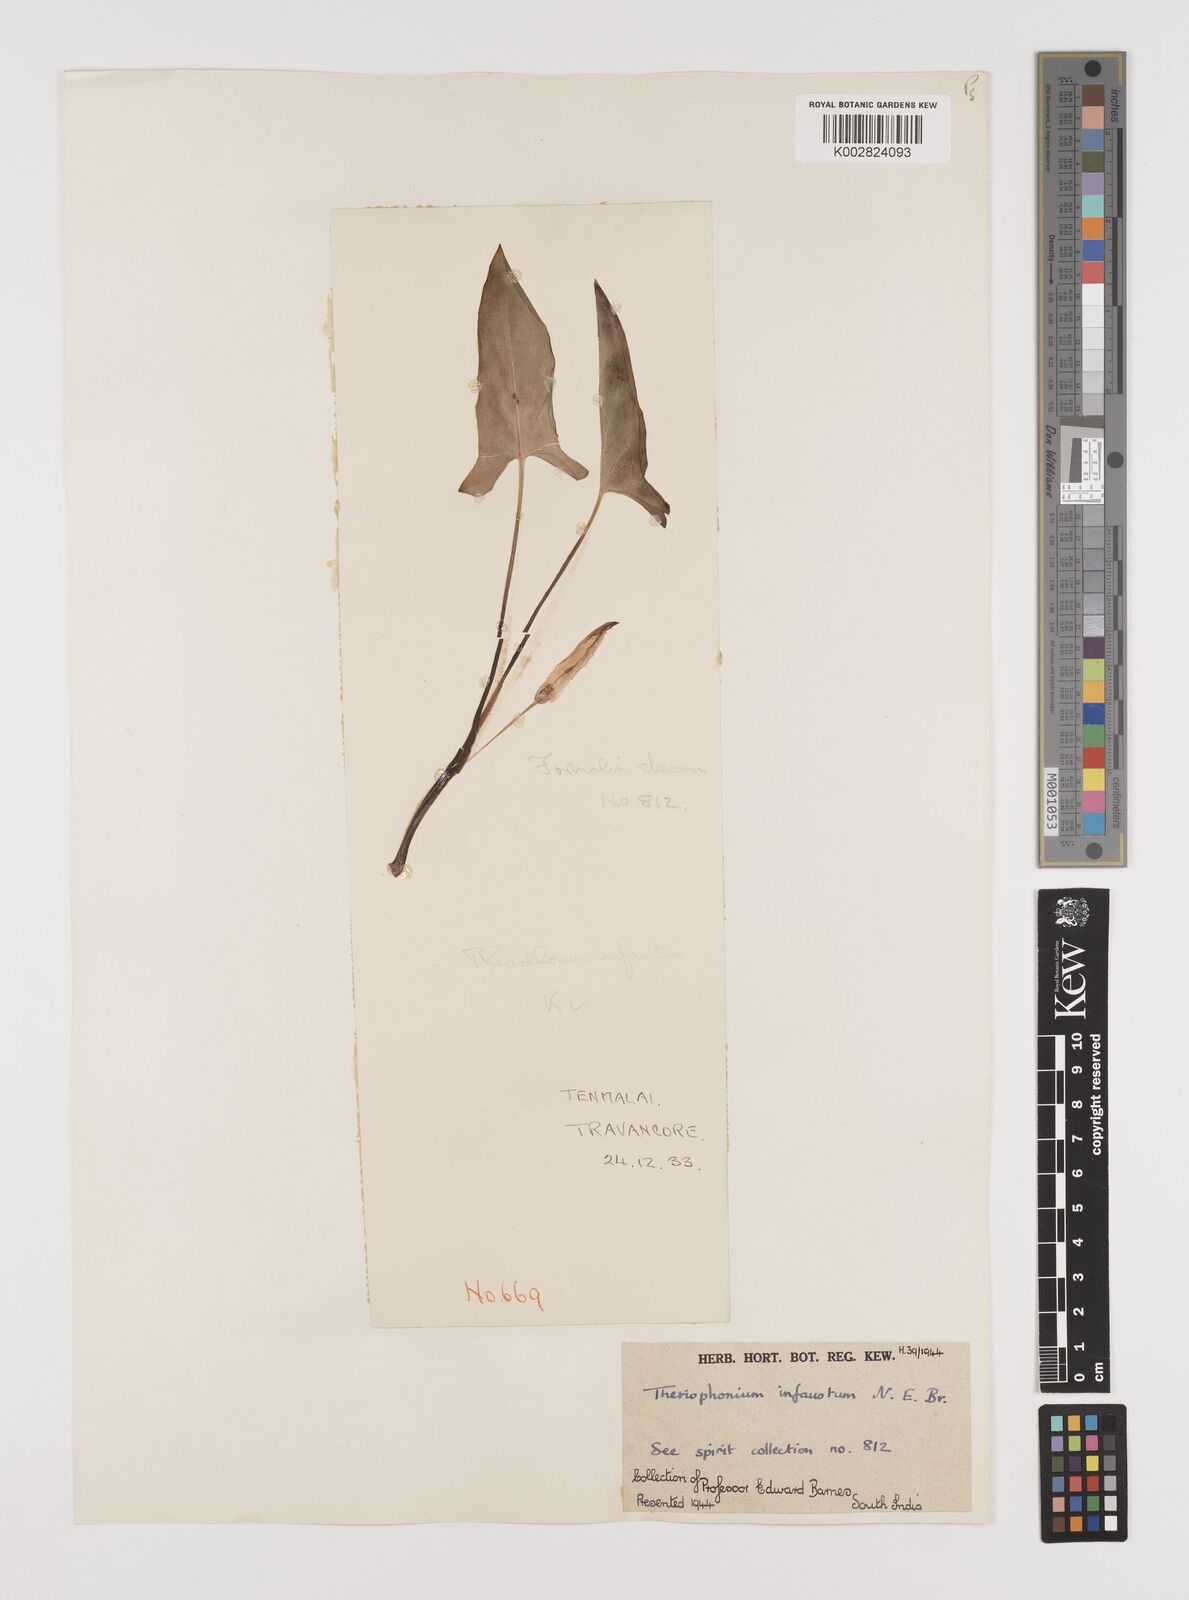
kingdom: Plantae
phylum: Tracheophyta
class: Liliopsida
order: Alismatales
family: Araceae
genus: Theriophonum
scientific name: Theriophonum infaustum
